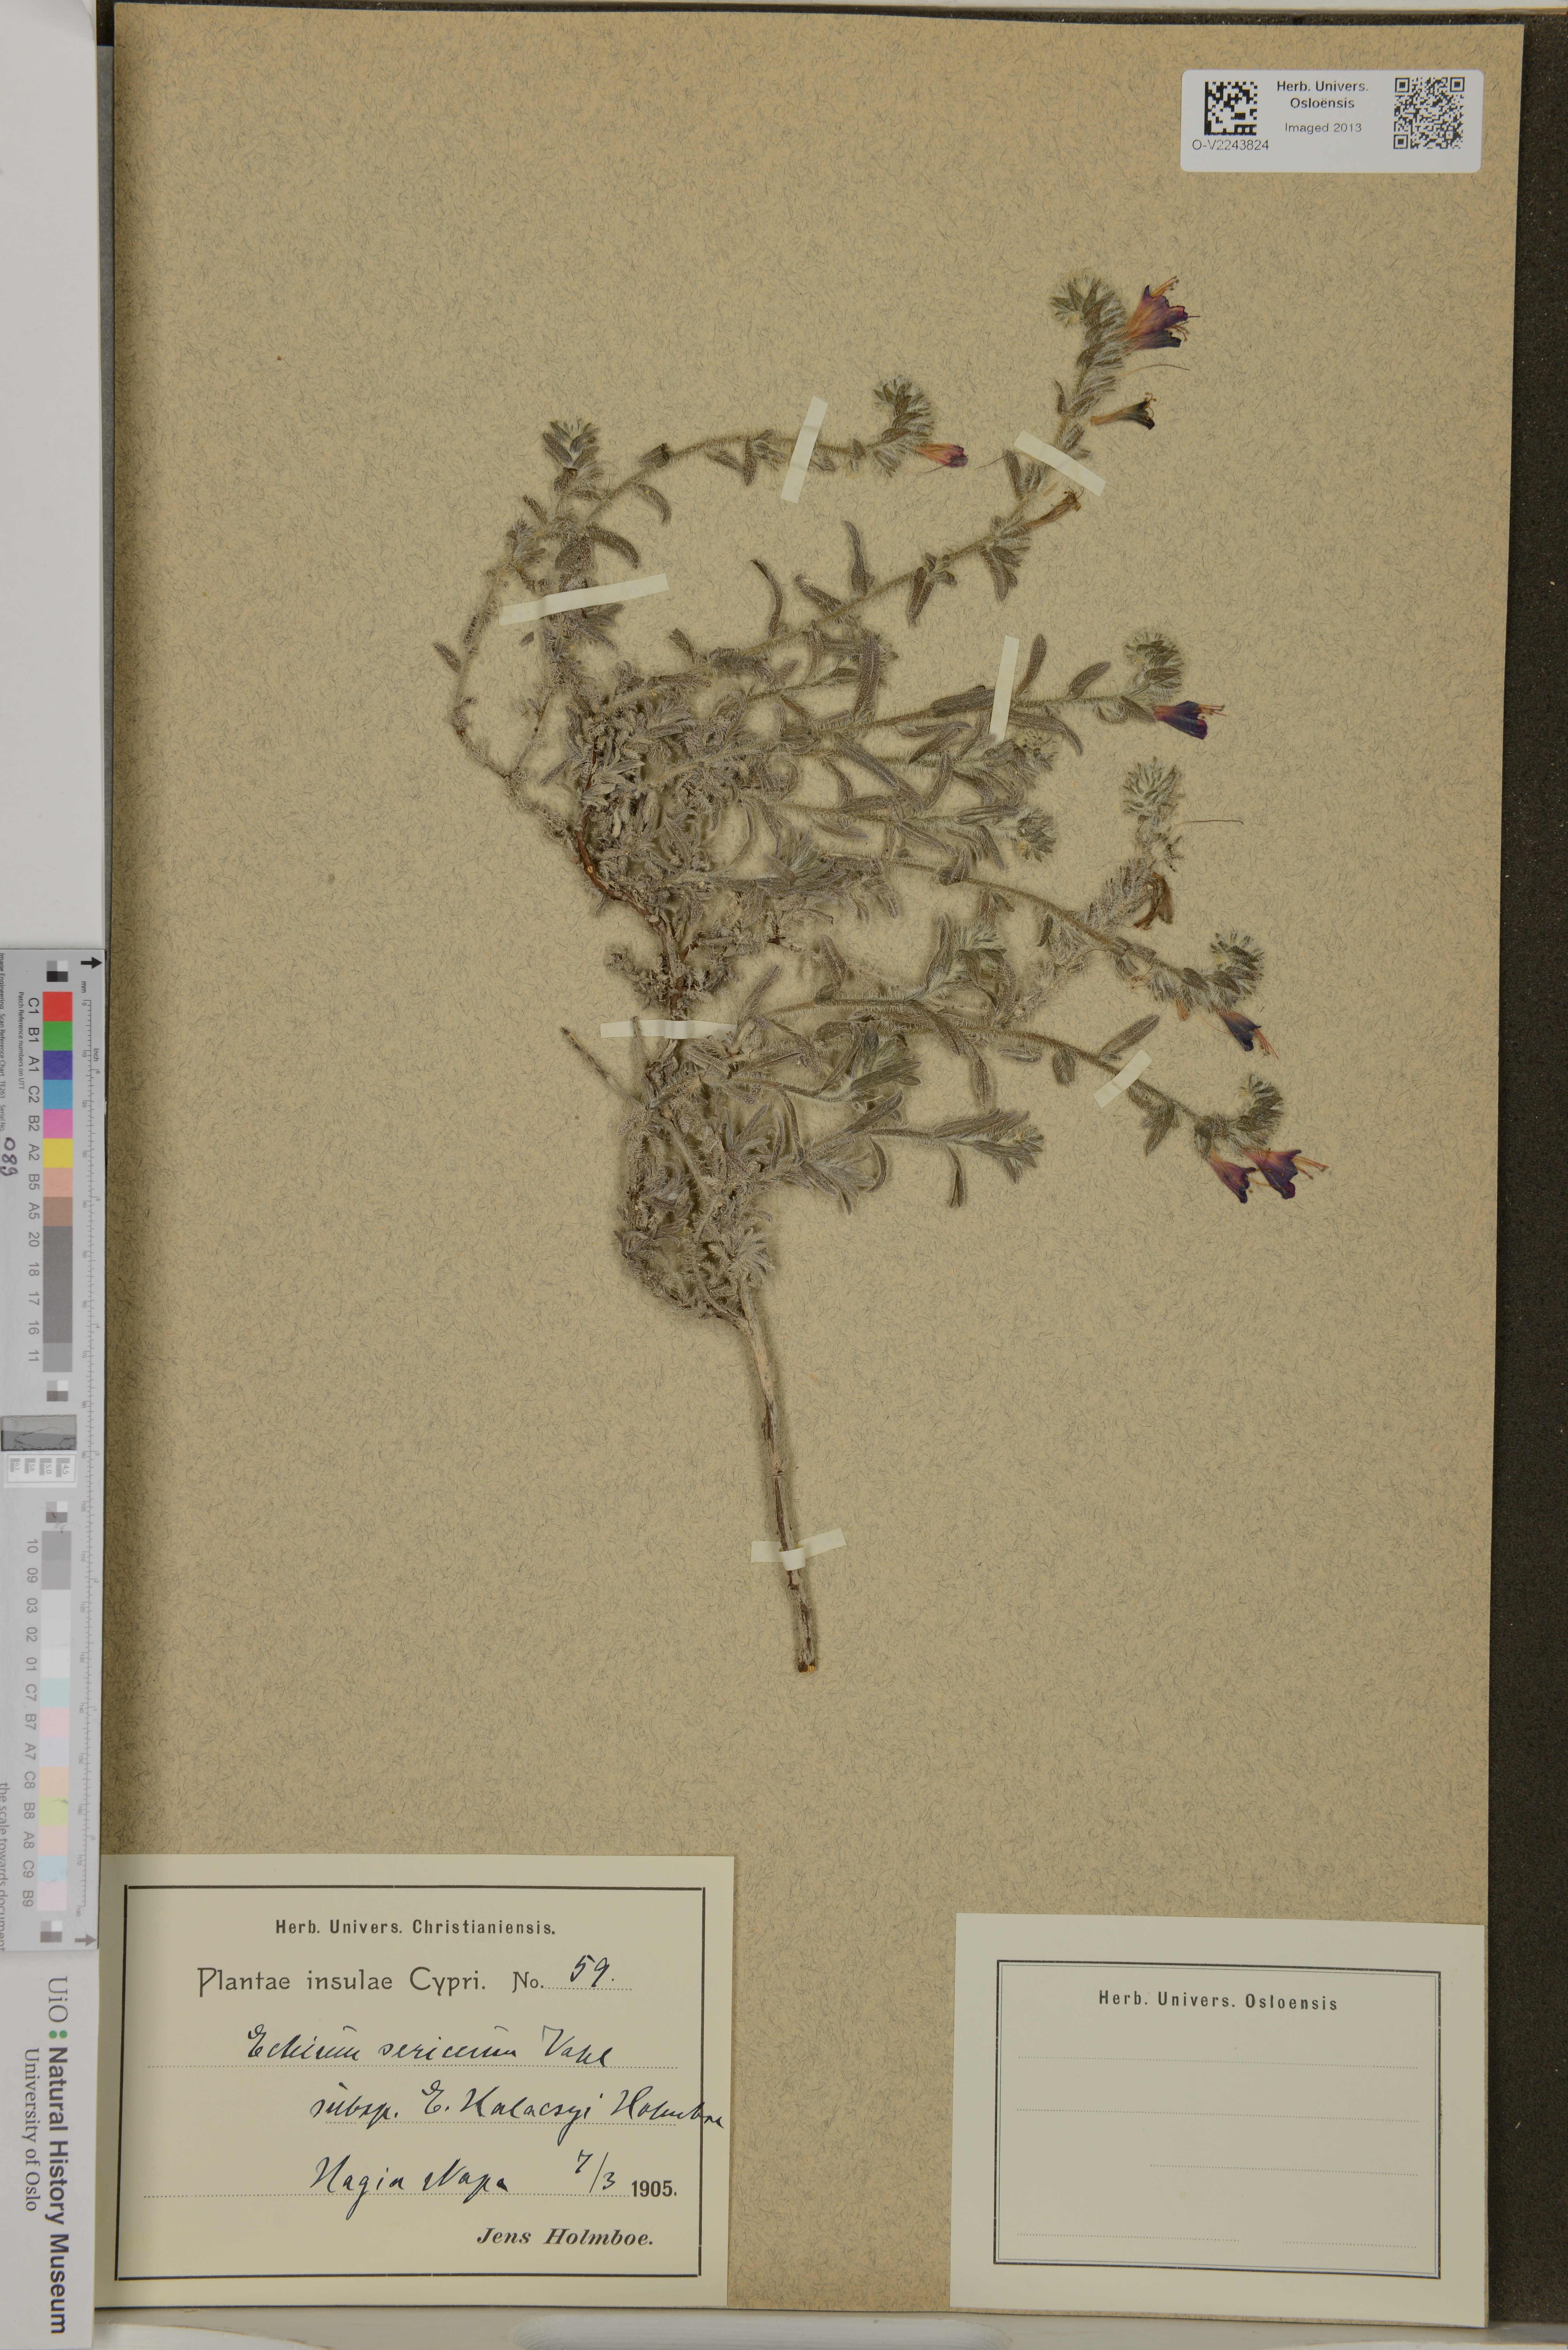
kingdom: Plantae
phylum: Tracheophyta
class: Magnoliopsida
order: Boraginales
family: Boraginaceae
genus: Echium
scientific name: Echium angustifolium
